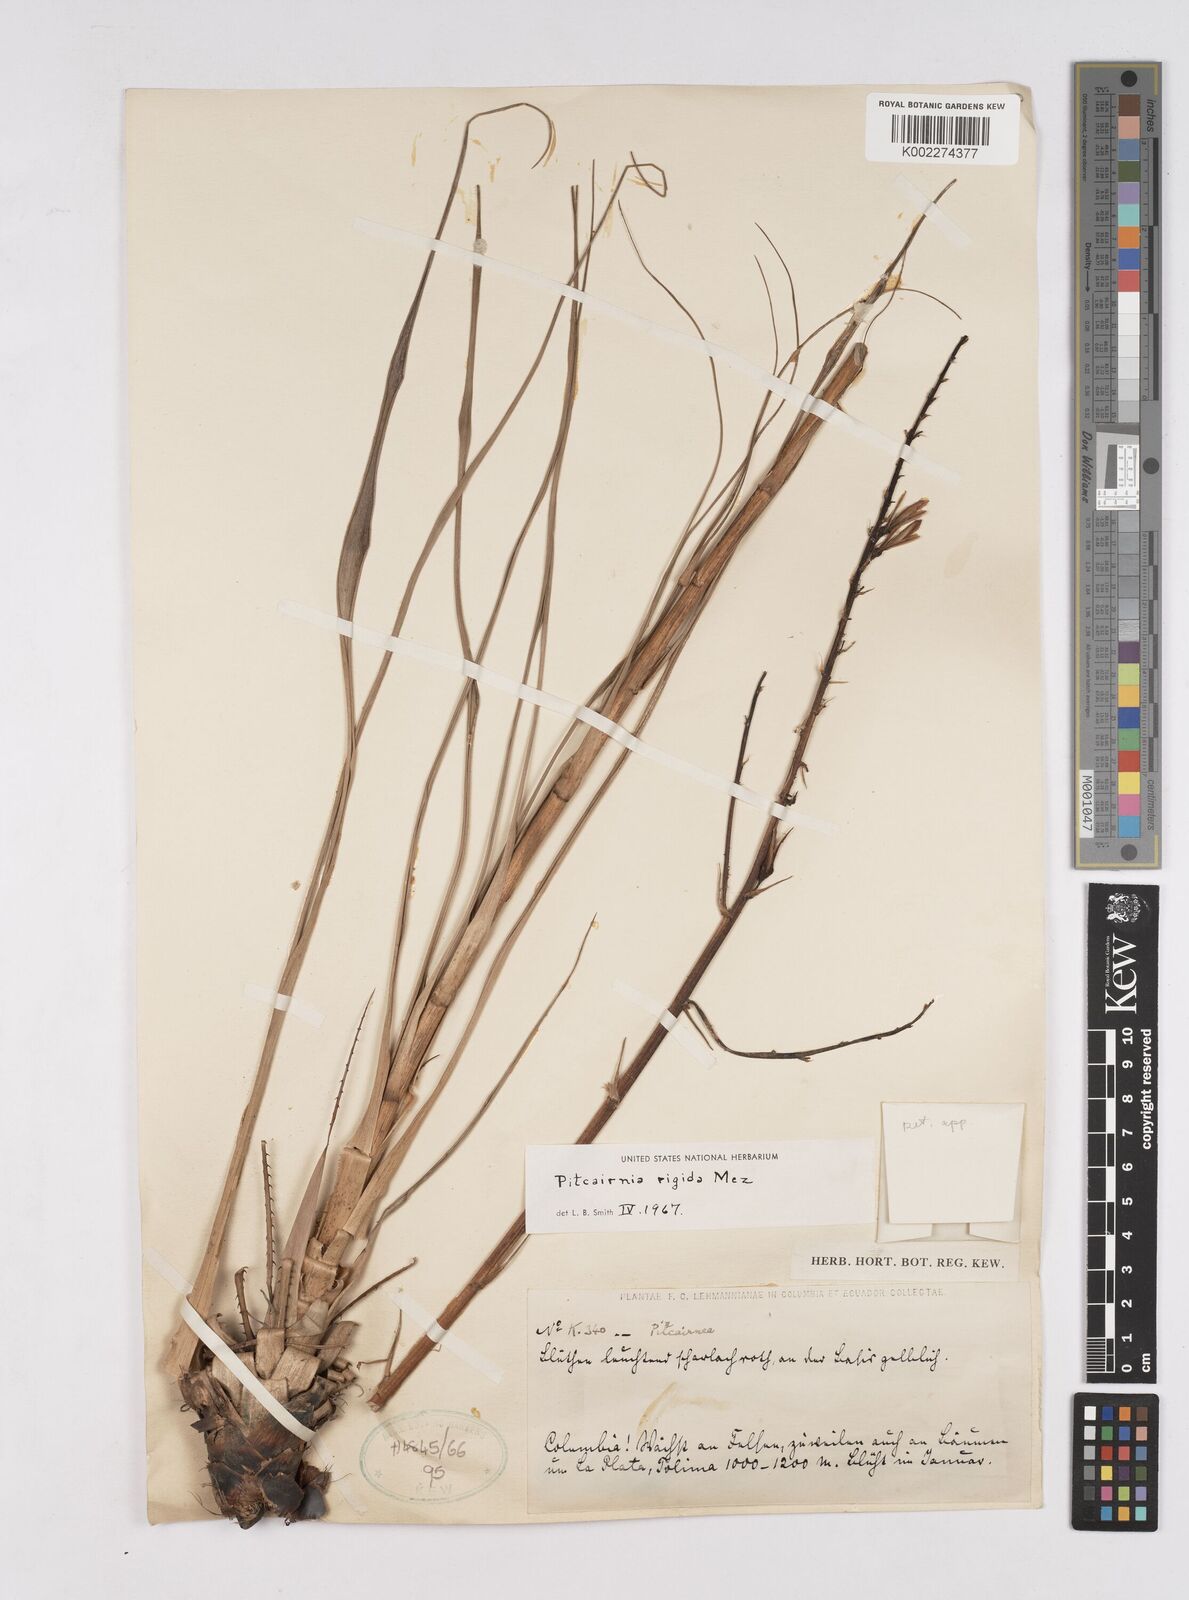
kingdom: Plantae
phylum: Tracheophyta
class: Liliopsida
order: Poales
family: Bromeliaceae
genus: Pitcairnia
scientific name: Pitcairnia rigida
